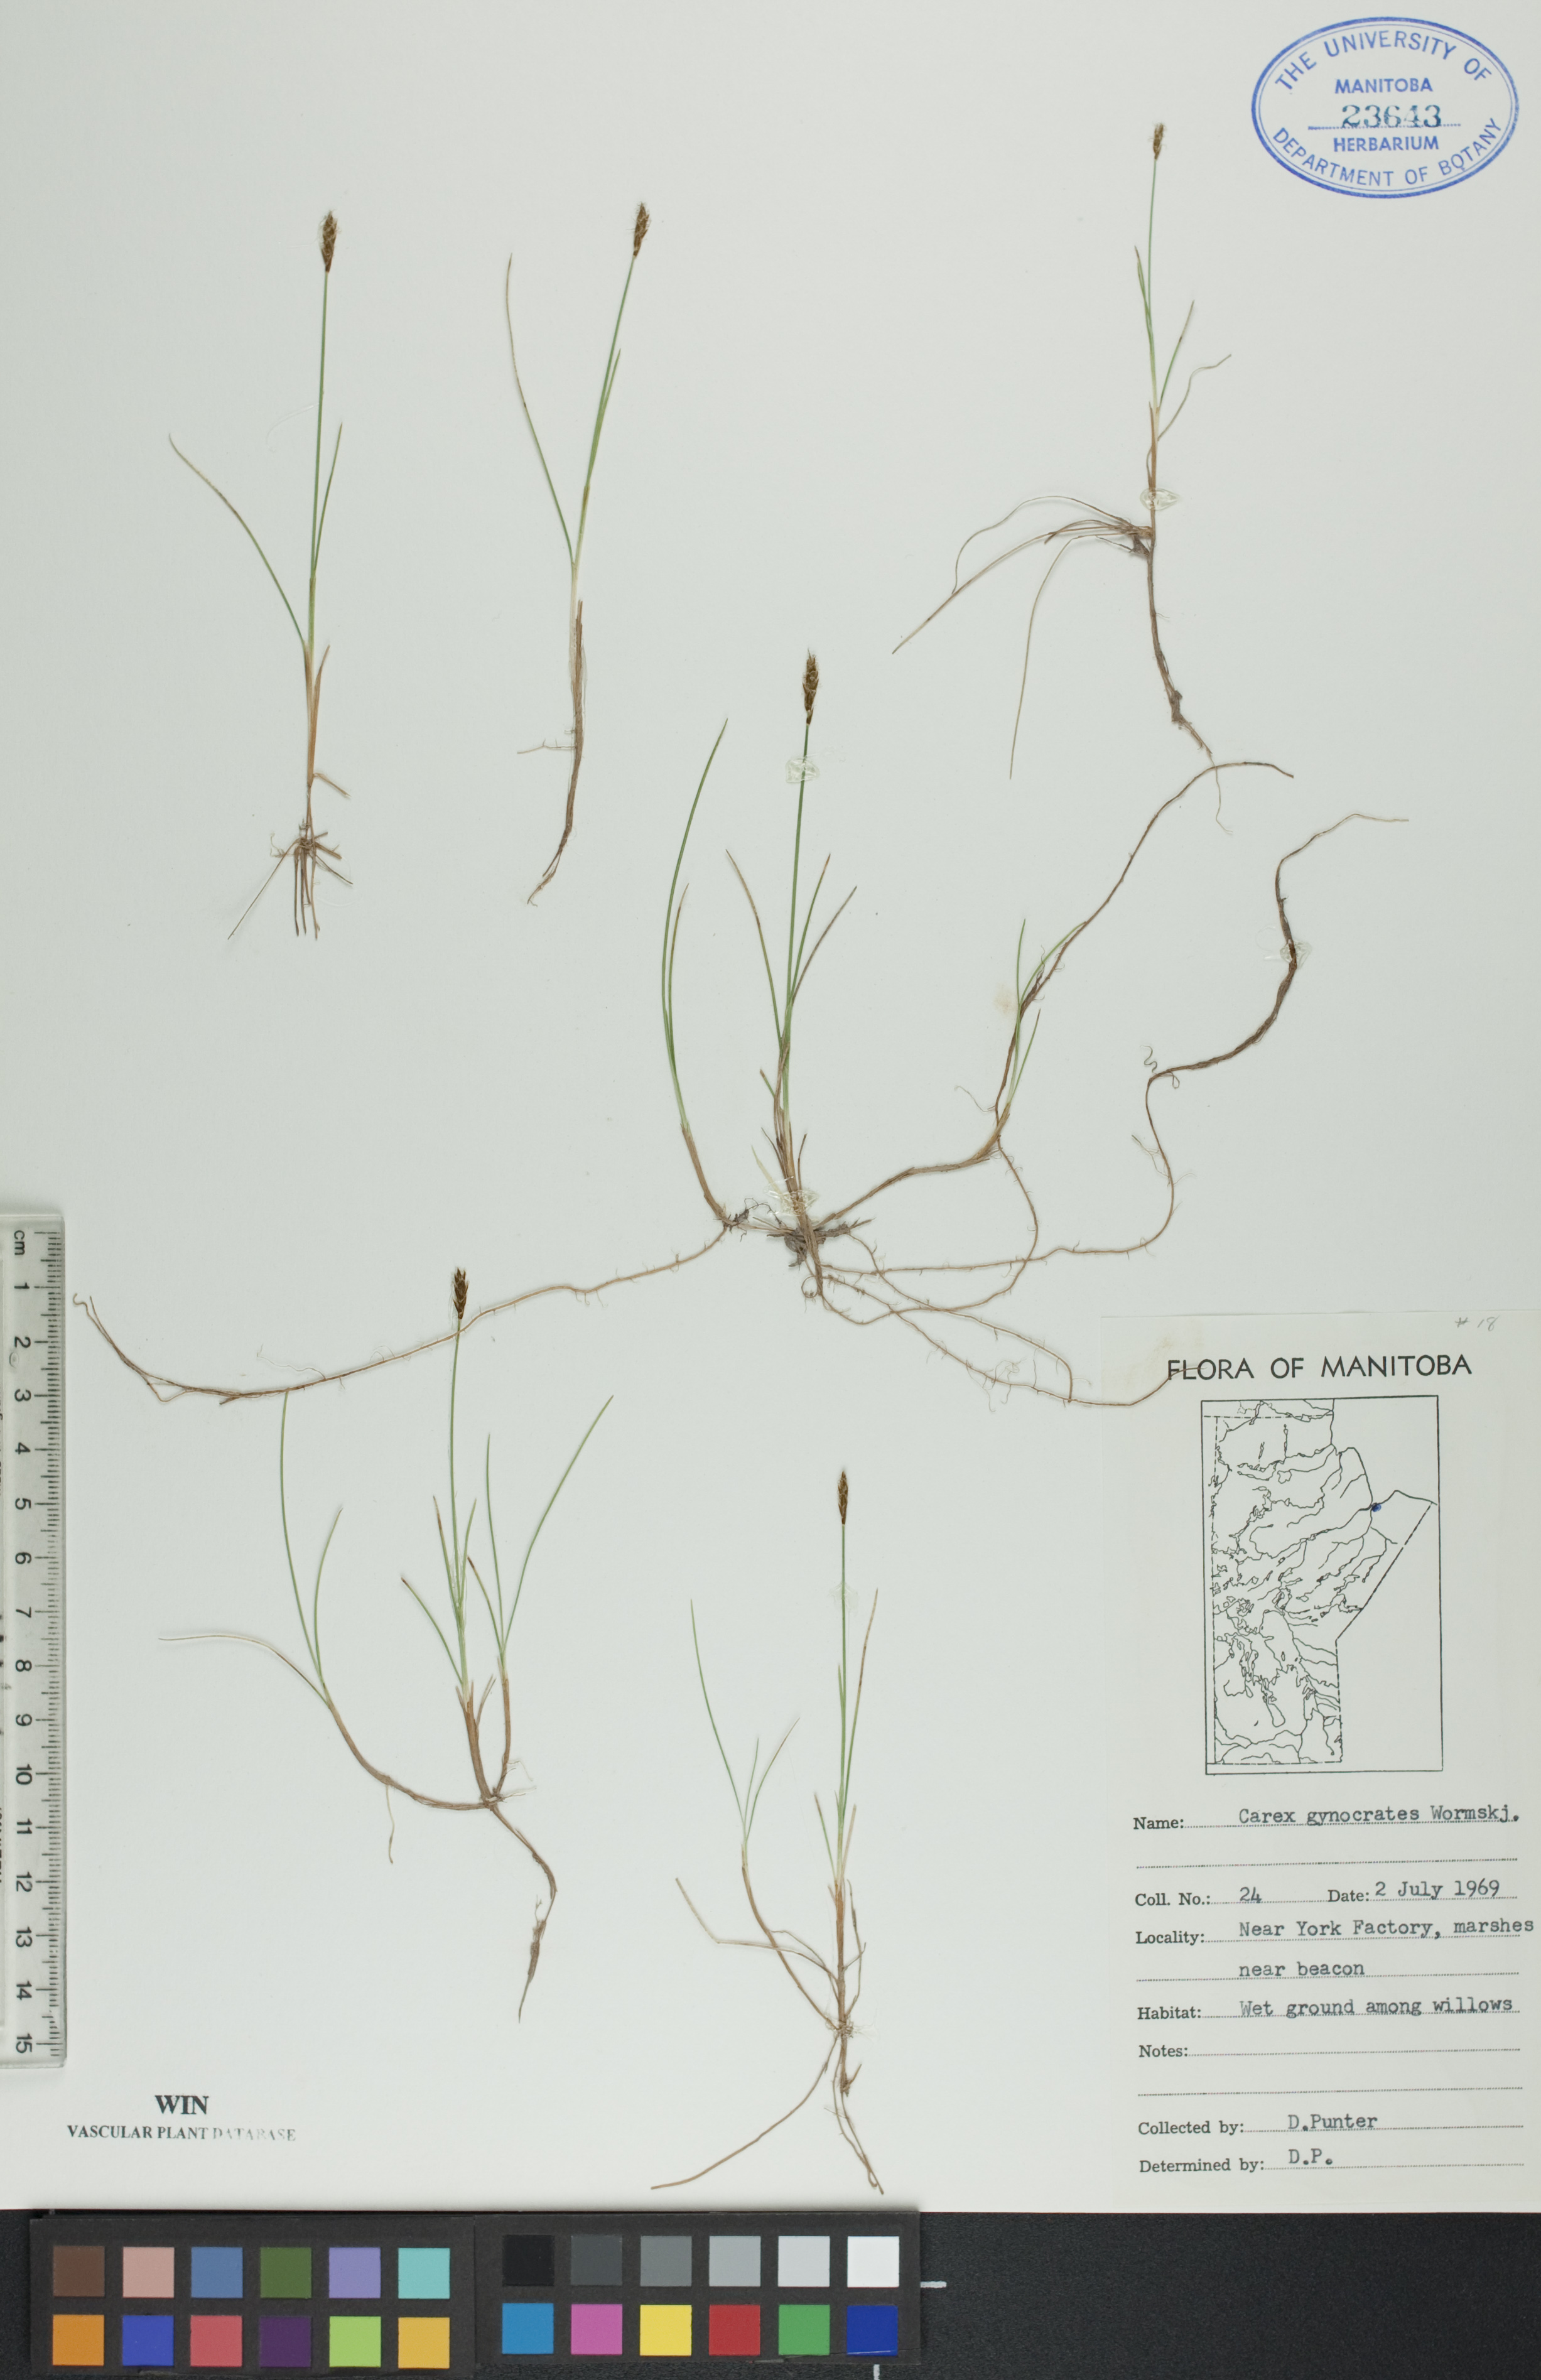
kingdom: Plantae
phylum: Tracheophyta
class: Liliopsida
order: Poales
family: Cyperaceae
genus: Carex
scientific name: Carex nardina
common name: Nard sedge
